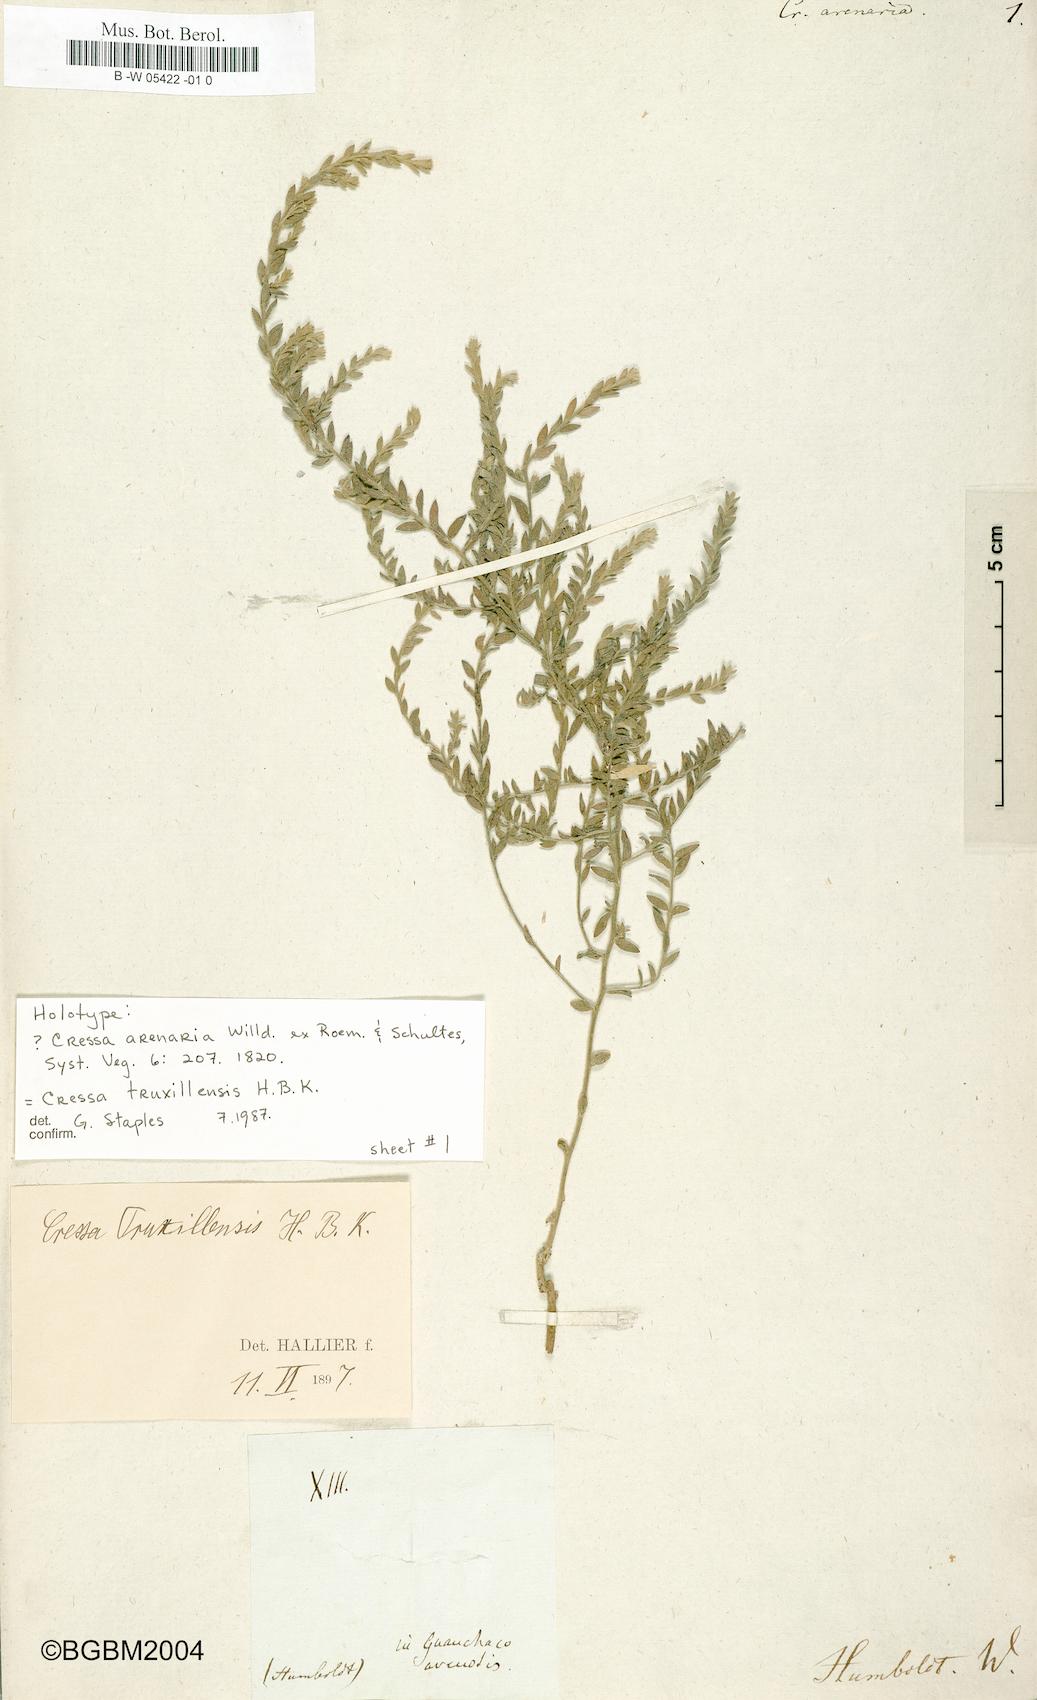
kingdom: Plantae
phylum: Tracheophyta
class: Magnoliopsida
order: Solanales
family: Convolvulaceae
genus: Cressa
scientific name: Cressa truxillensis
